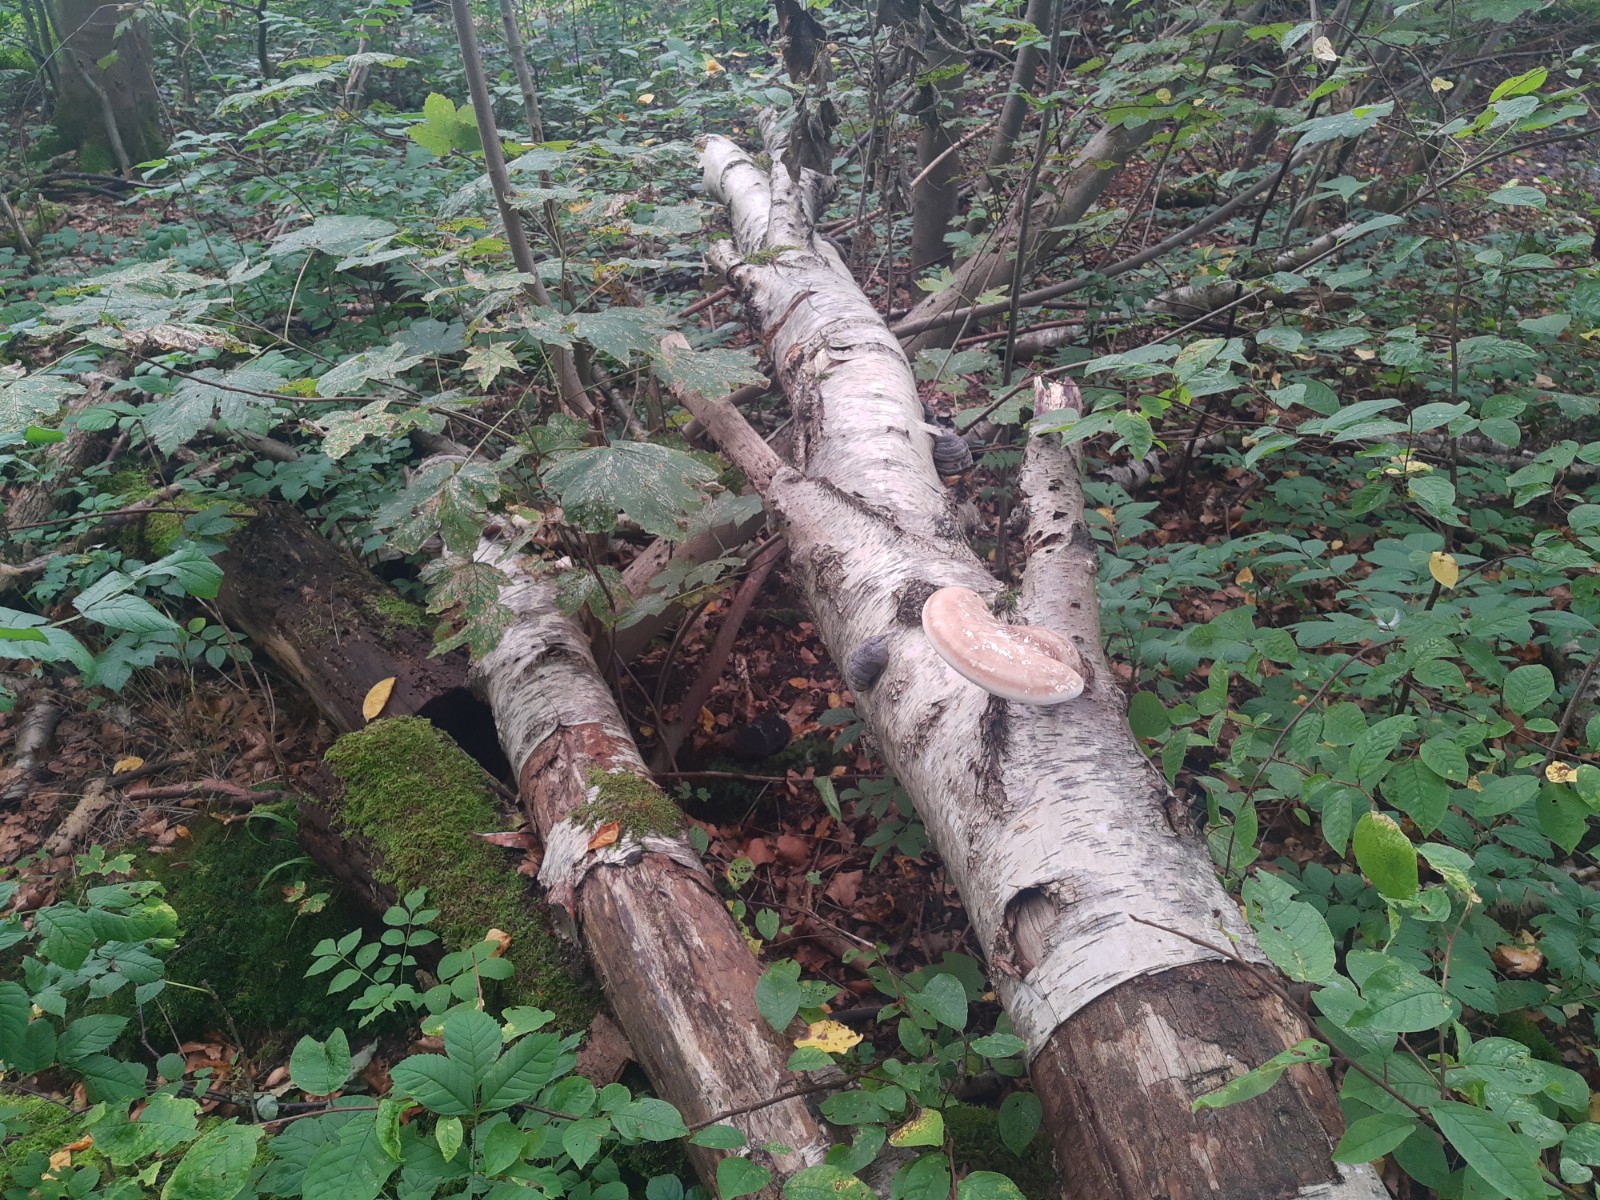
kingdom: Fungi
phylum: Basidiomycota
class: Agaricomycetes
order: Polyporales
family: Fomitopsidaceae
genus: Fomitopsis
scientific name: Fomitopsis betulina
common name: birkeporesvamp
